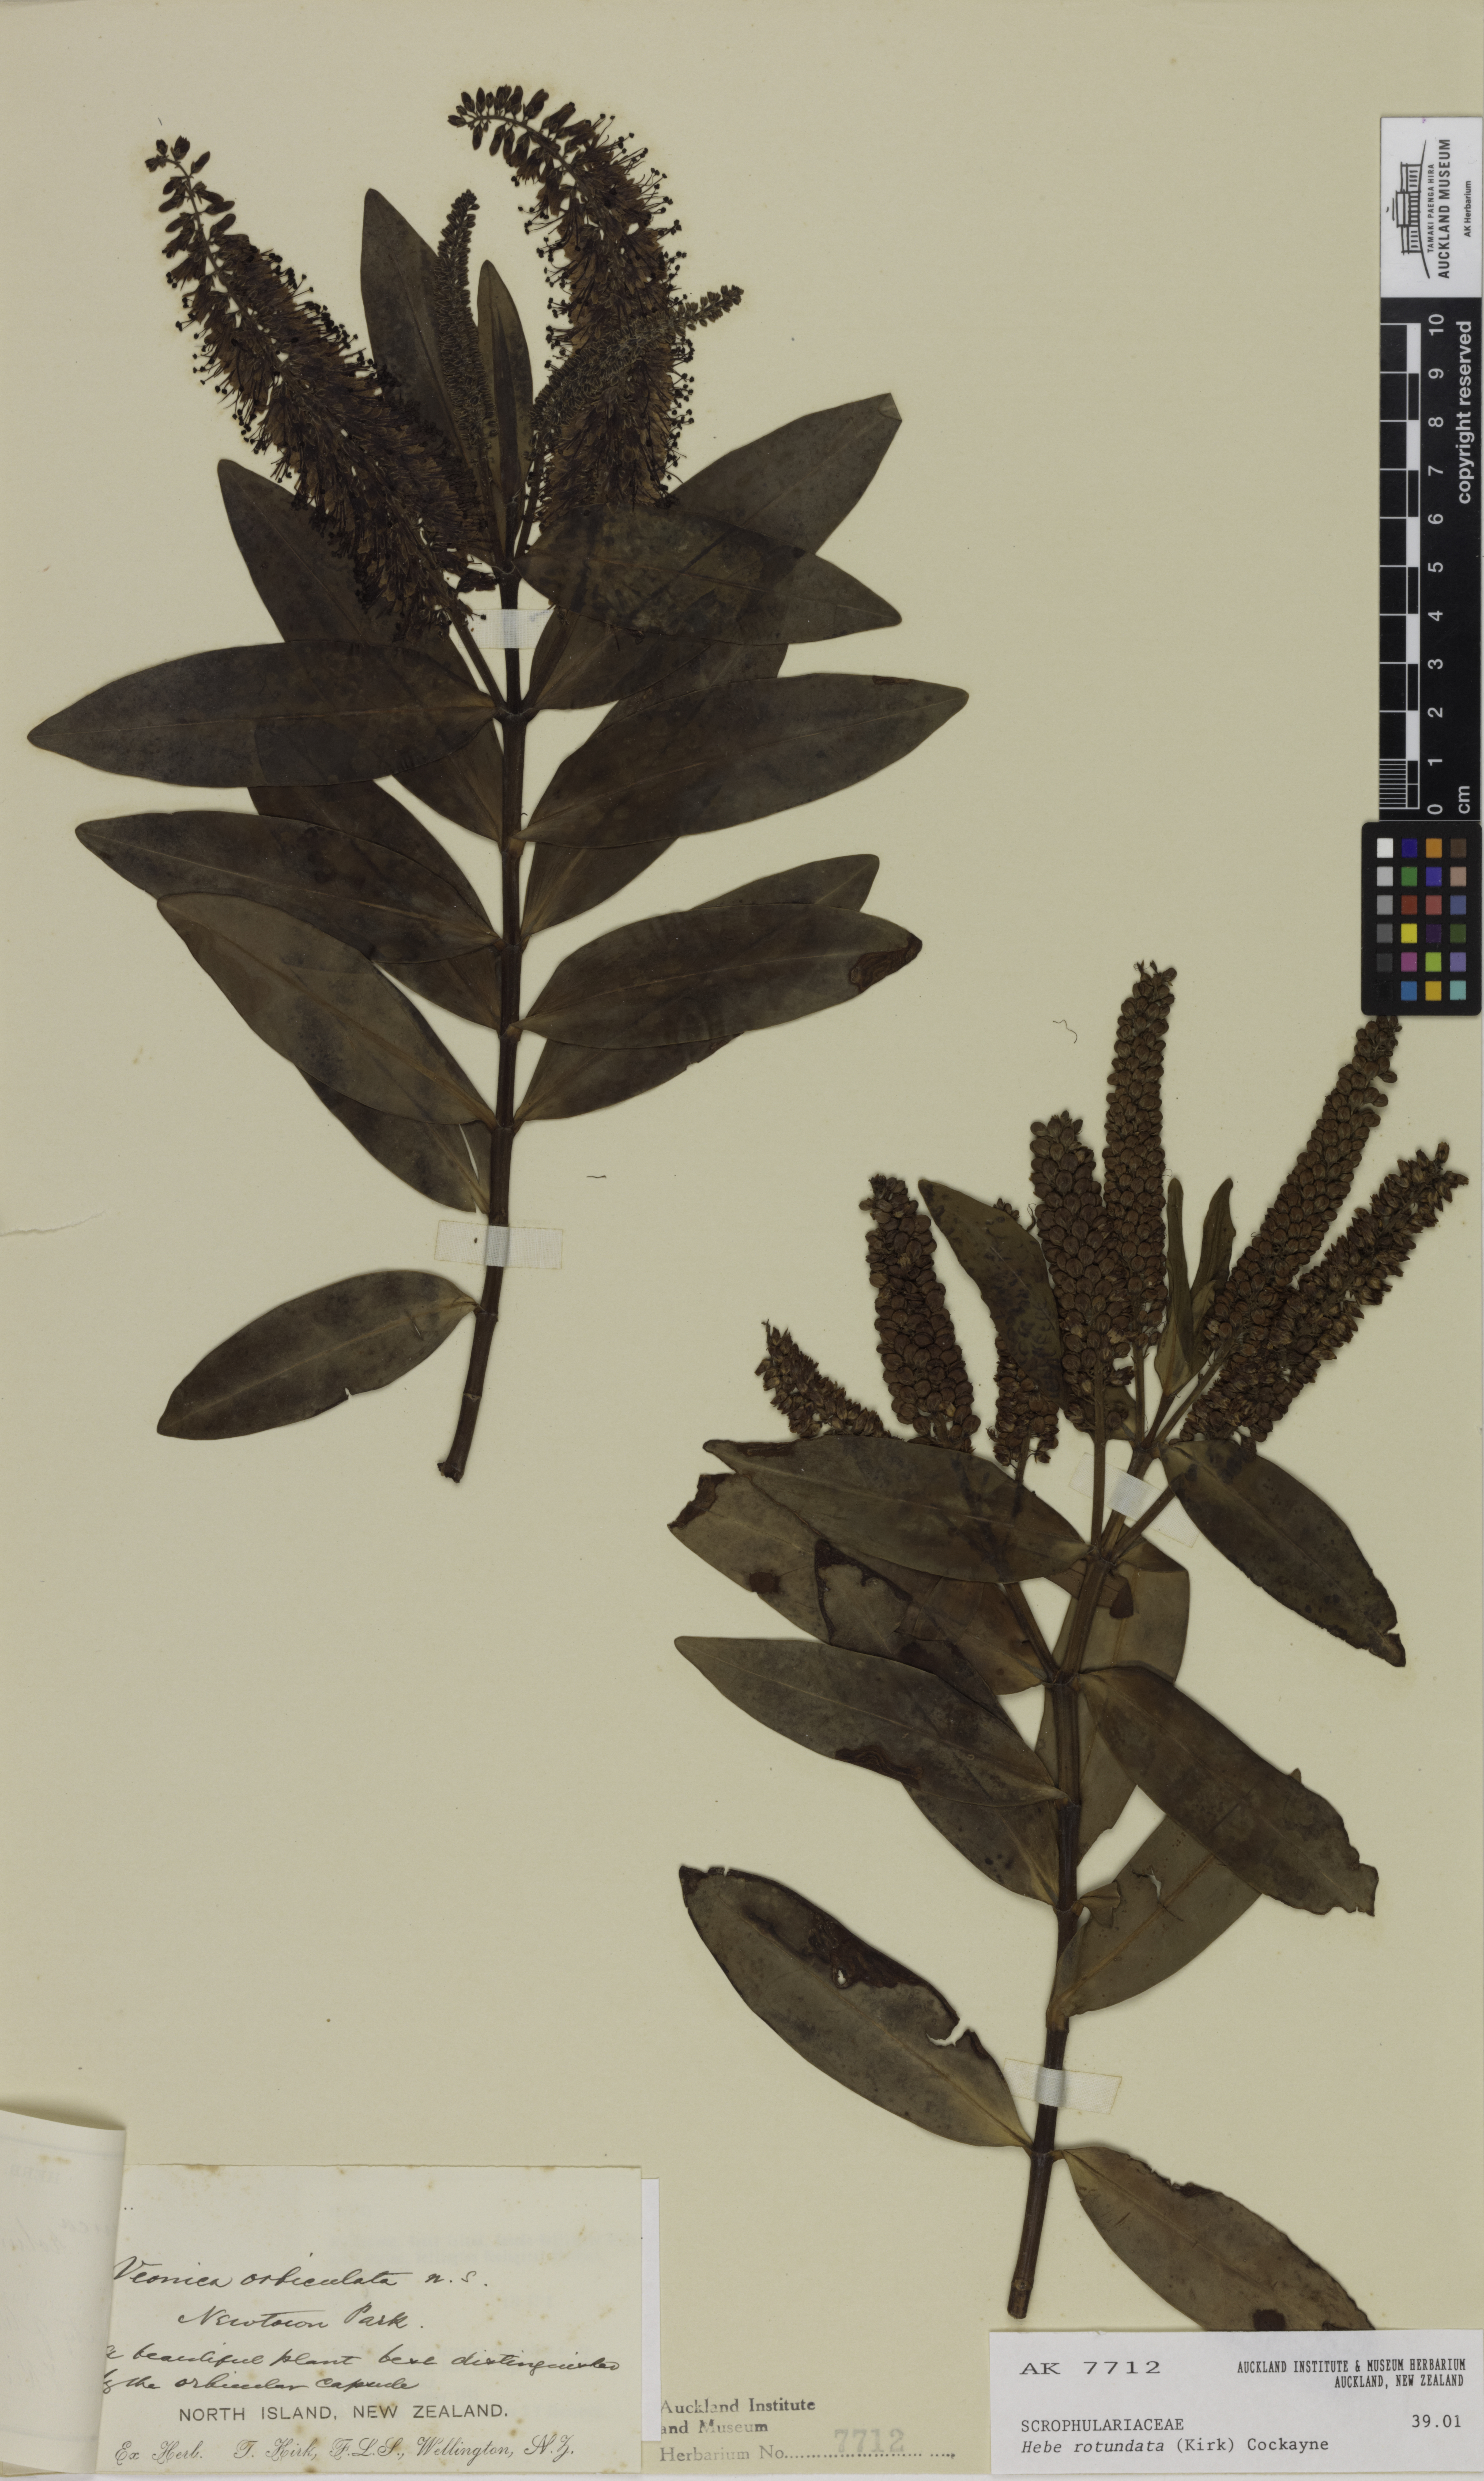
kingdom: Plantae
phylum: Tracheophyta
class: Magnoliopsida
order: Lamiales
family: Plantaginaceae
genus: Veronica
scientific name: Veronica rotundata
